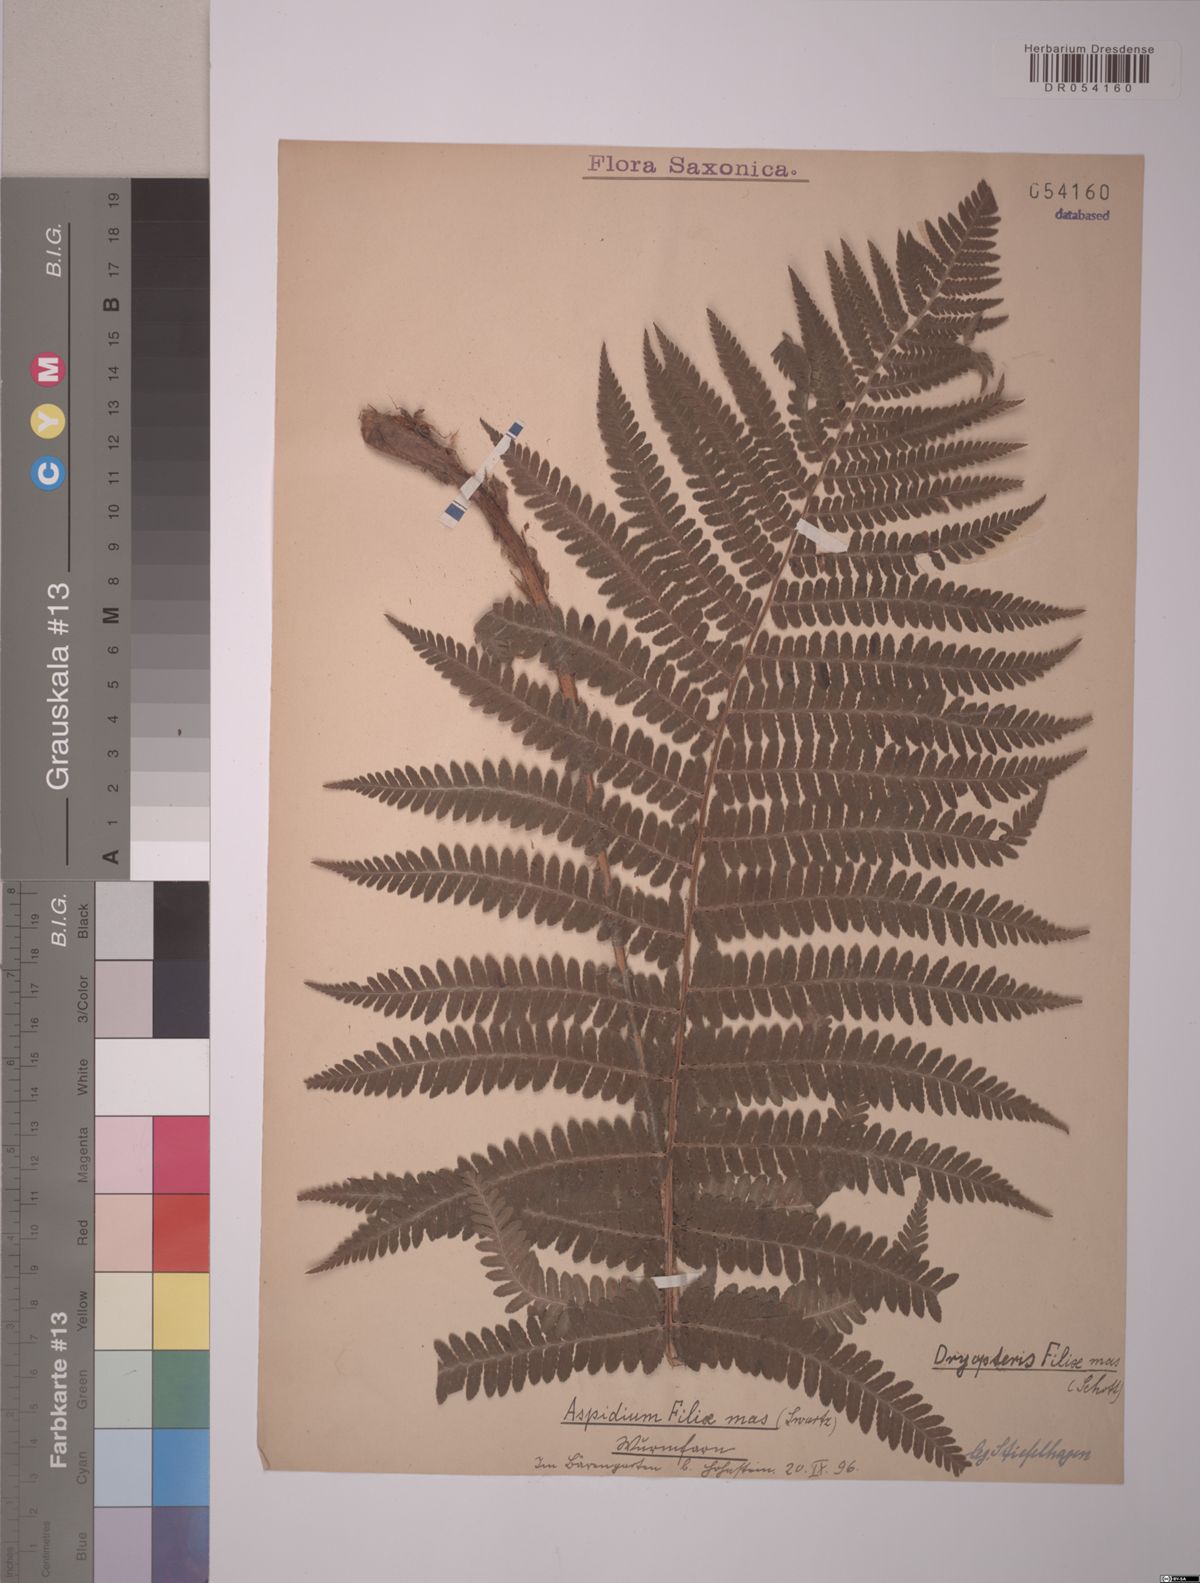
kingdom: Plantae
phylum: Tracheophyta
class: Polypodiopsida
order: Polypodiales
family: Dryopteridaceae
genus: Dryopteris
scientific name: Dryopteris filix-mas
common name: Male fern
